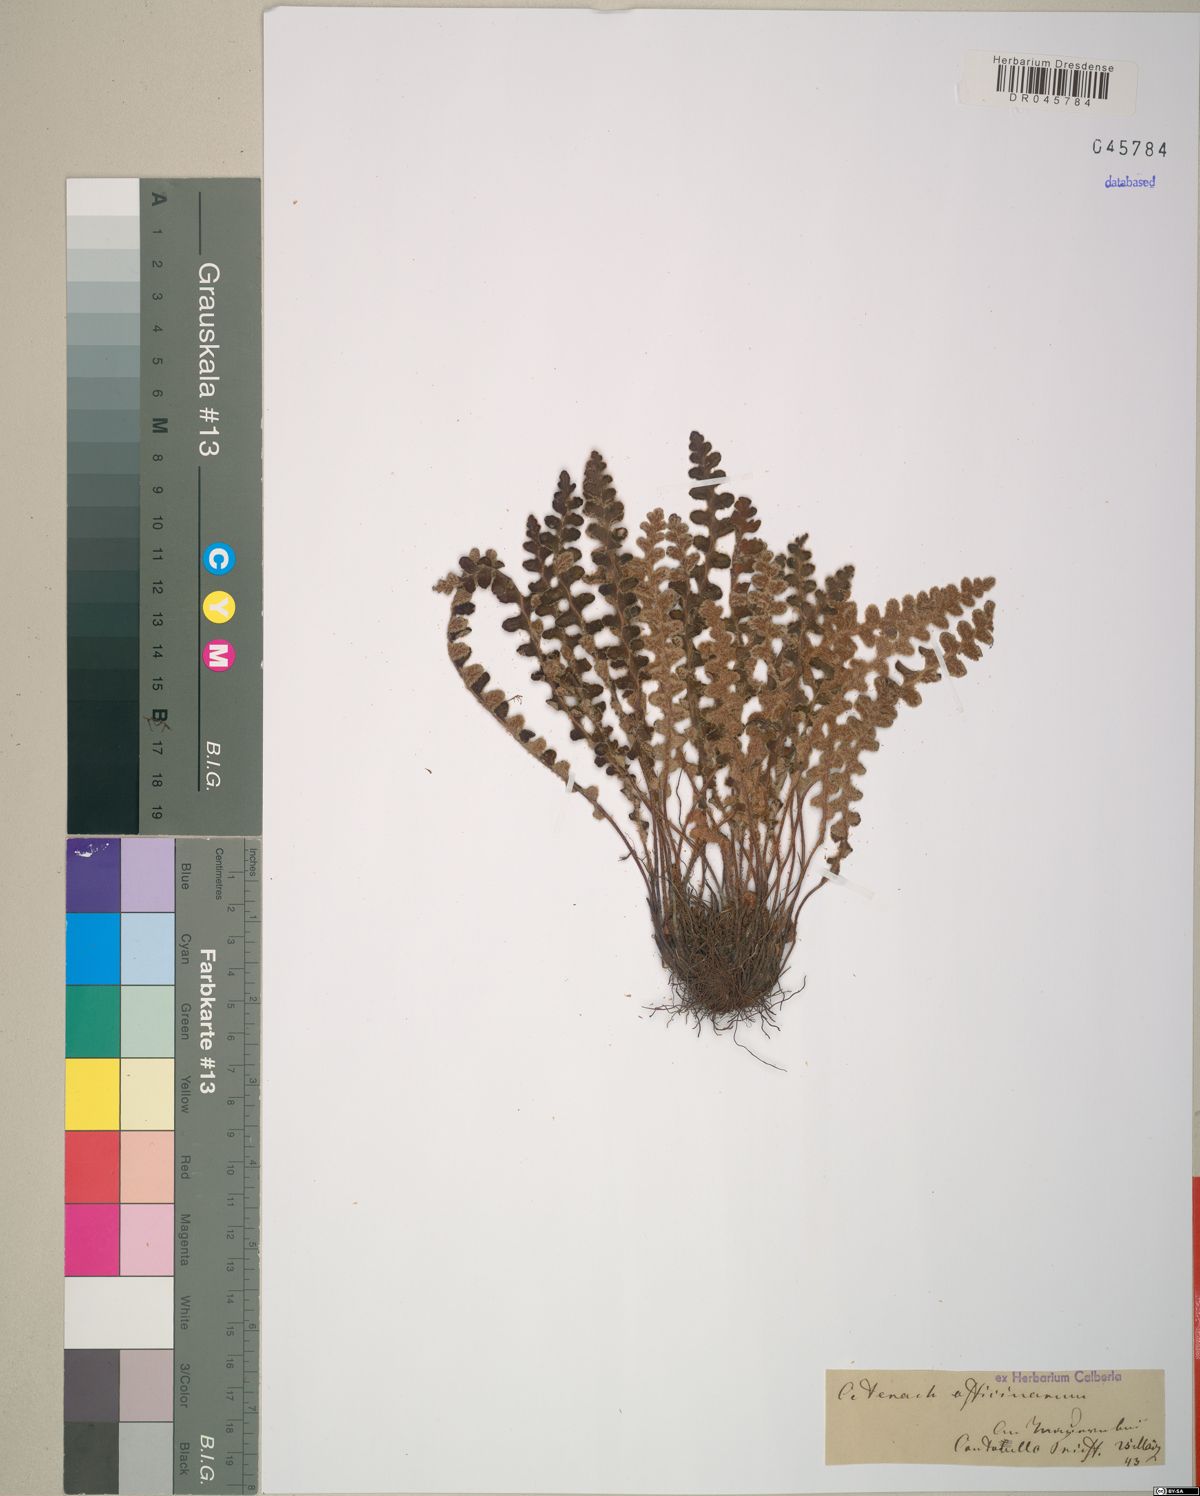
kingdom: Plantae
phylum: Tracheophyta
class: Polypodiopsida
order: Polypodiales
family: Aspleniaceae
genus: Asplenium
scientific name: Asplenium ceterach
